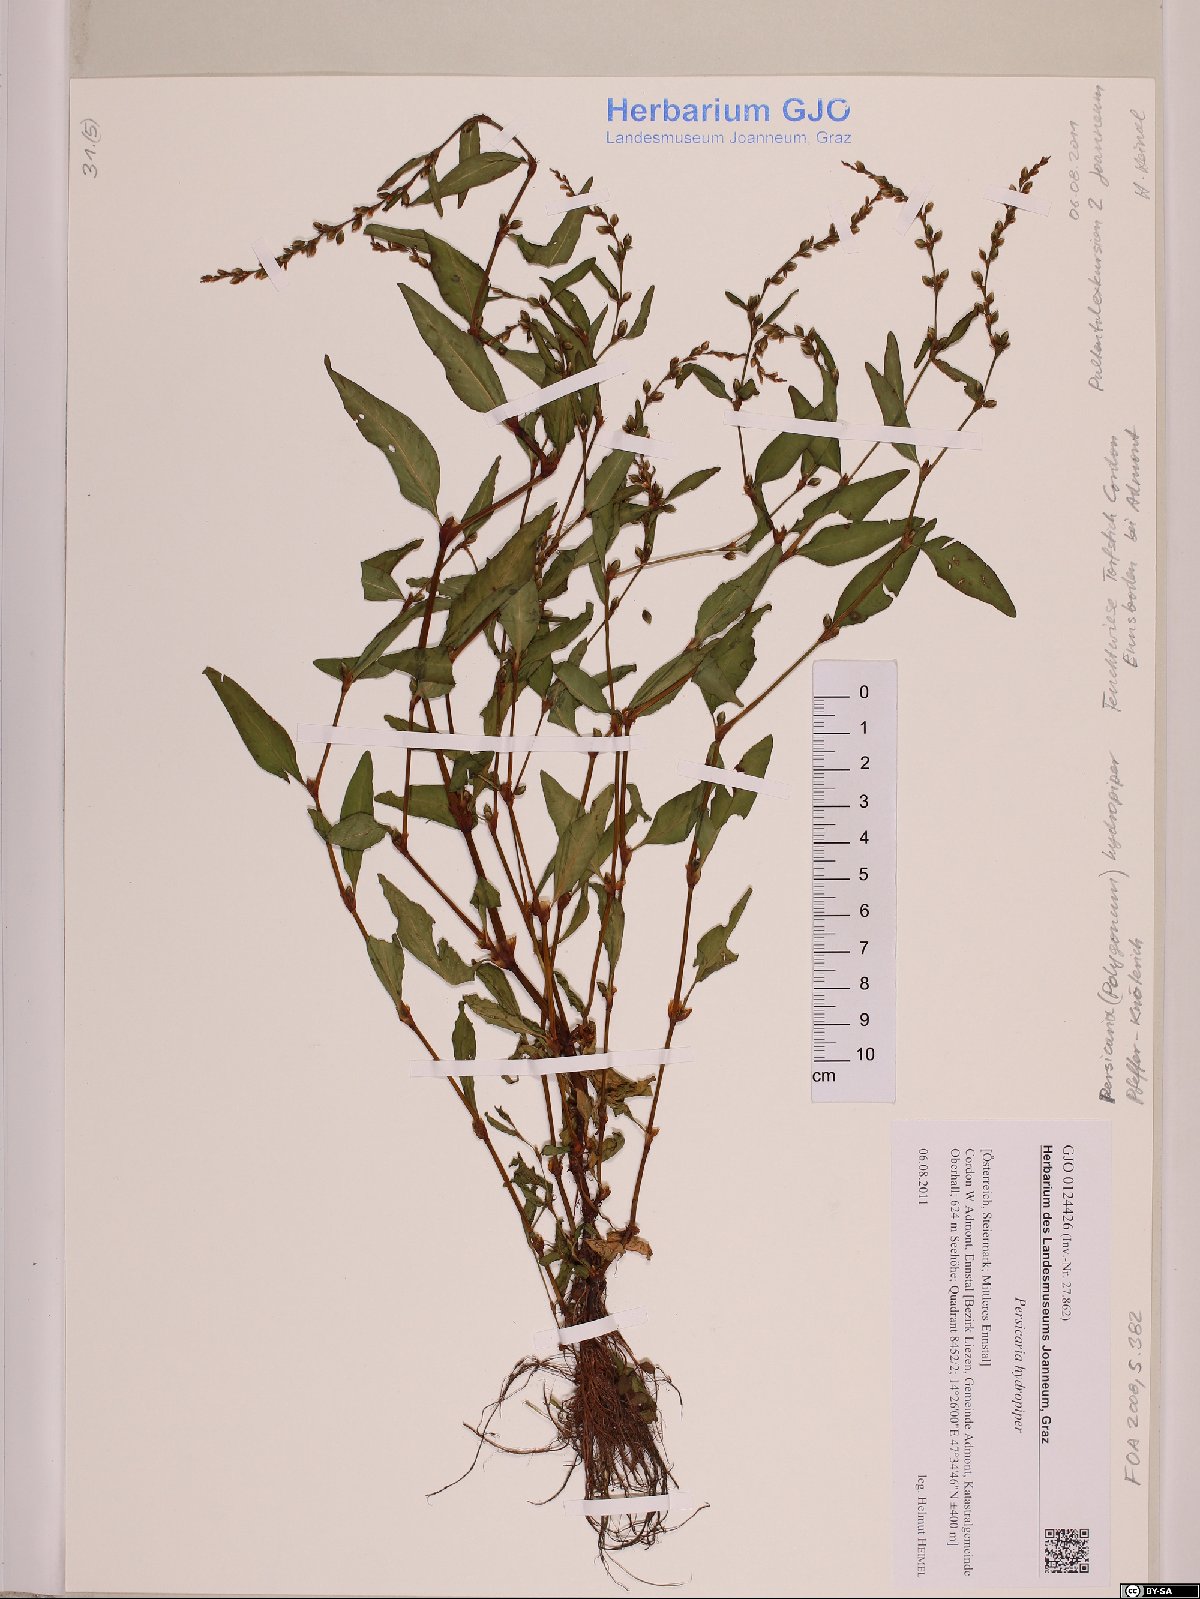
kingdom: Plantae
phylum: Tracheophyta
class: Magnoliopsida
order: Caryophyllales
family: Polygonaceae
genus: Persicaria
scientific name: Persicaria hydropiper
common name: Water-pepper
